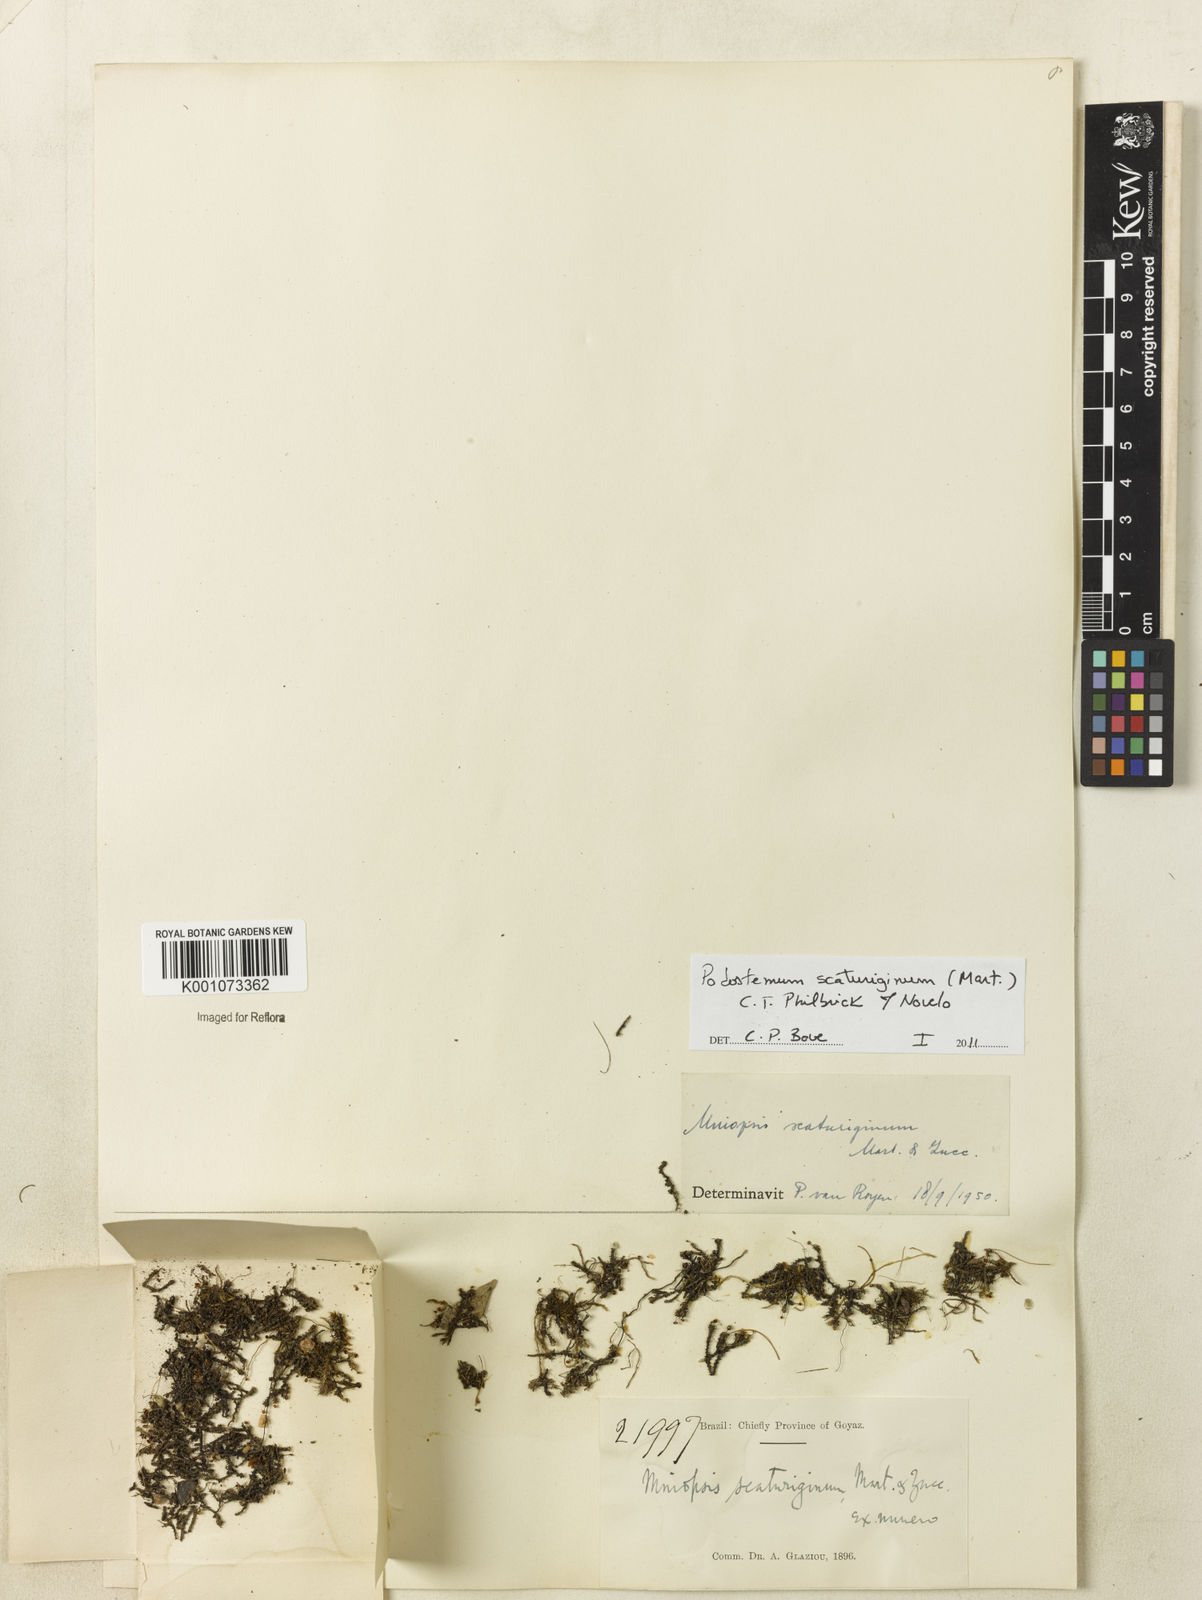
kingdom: Plantae
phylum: Tracheophyta
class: Magnoliopsida
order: Malpighiales
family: Podostemaceae
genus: Podostemum
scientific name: Podostemum scaturiginum
